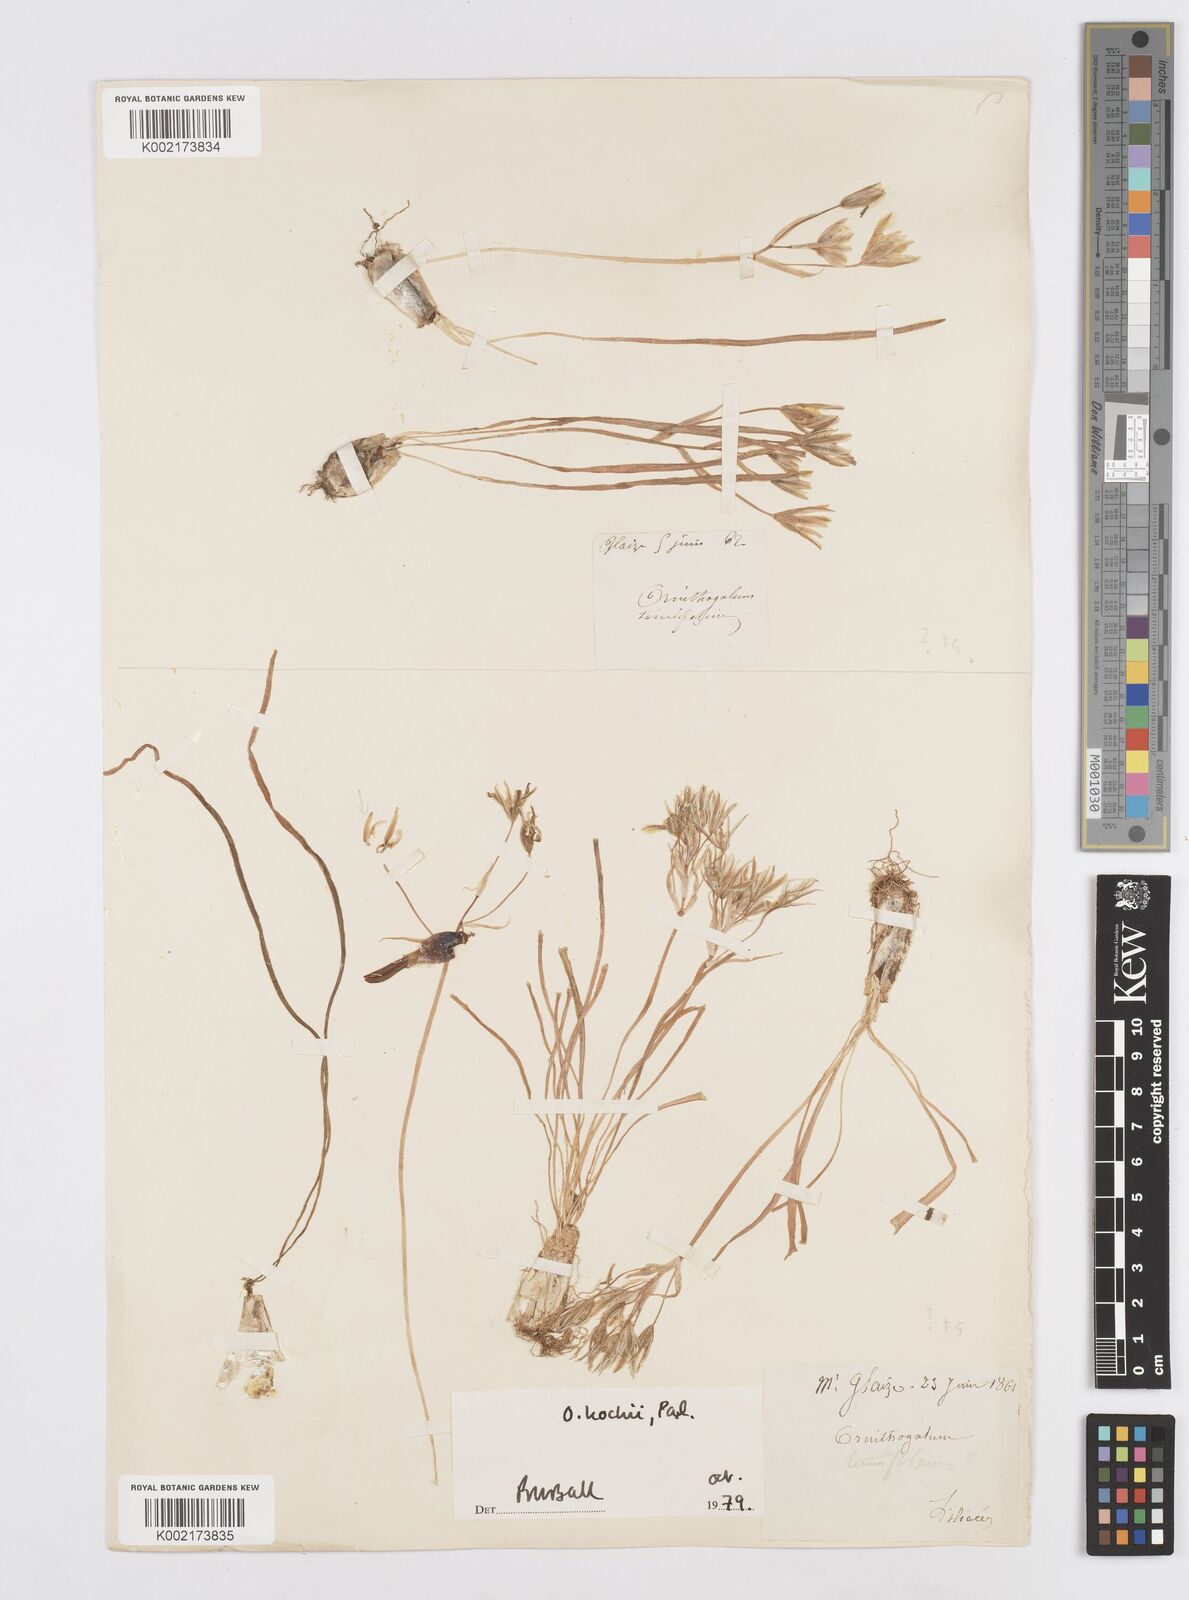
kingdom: Plantae
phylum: Tracheophyta
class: Liliopsida
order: Asparagales
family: Asparagaceae
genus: Ornithogalum
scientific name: Ornithogalum orthophyllum
